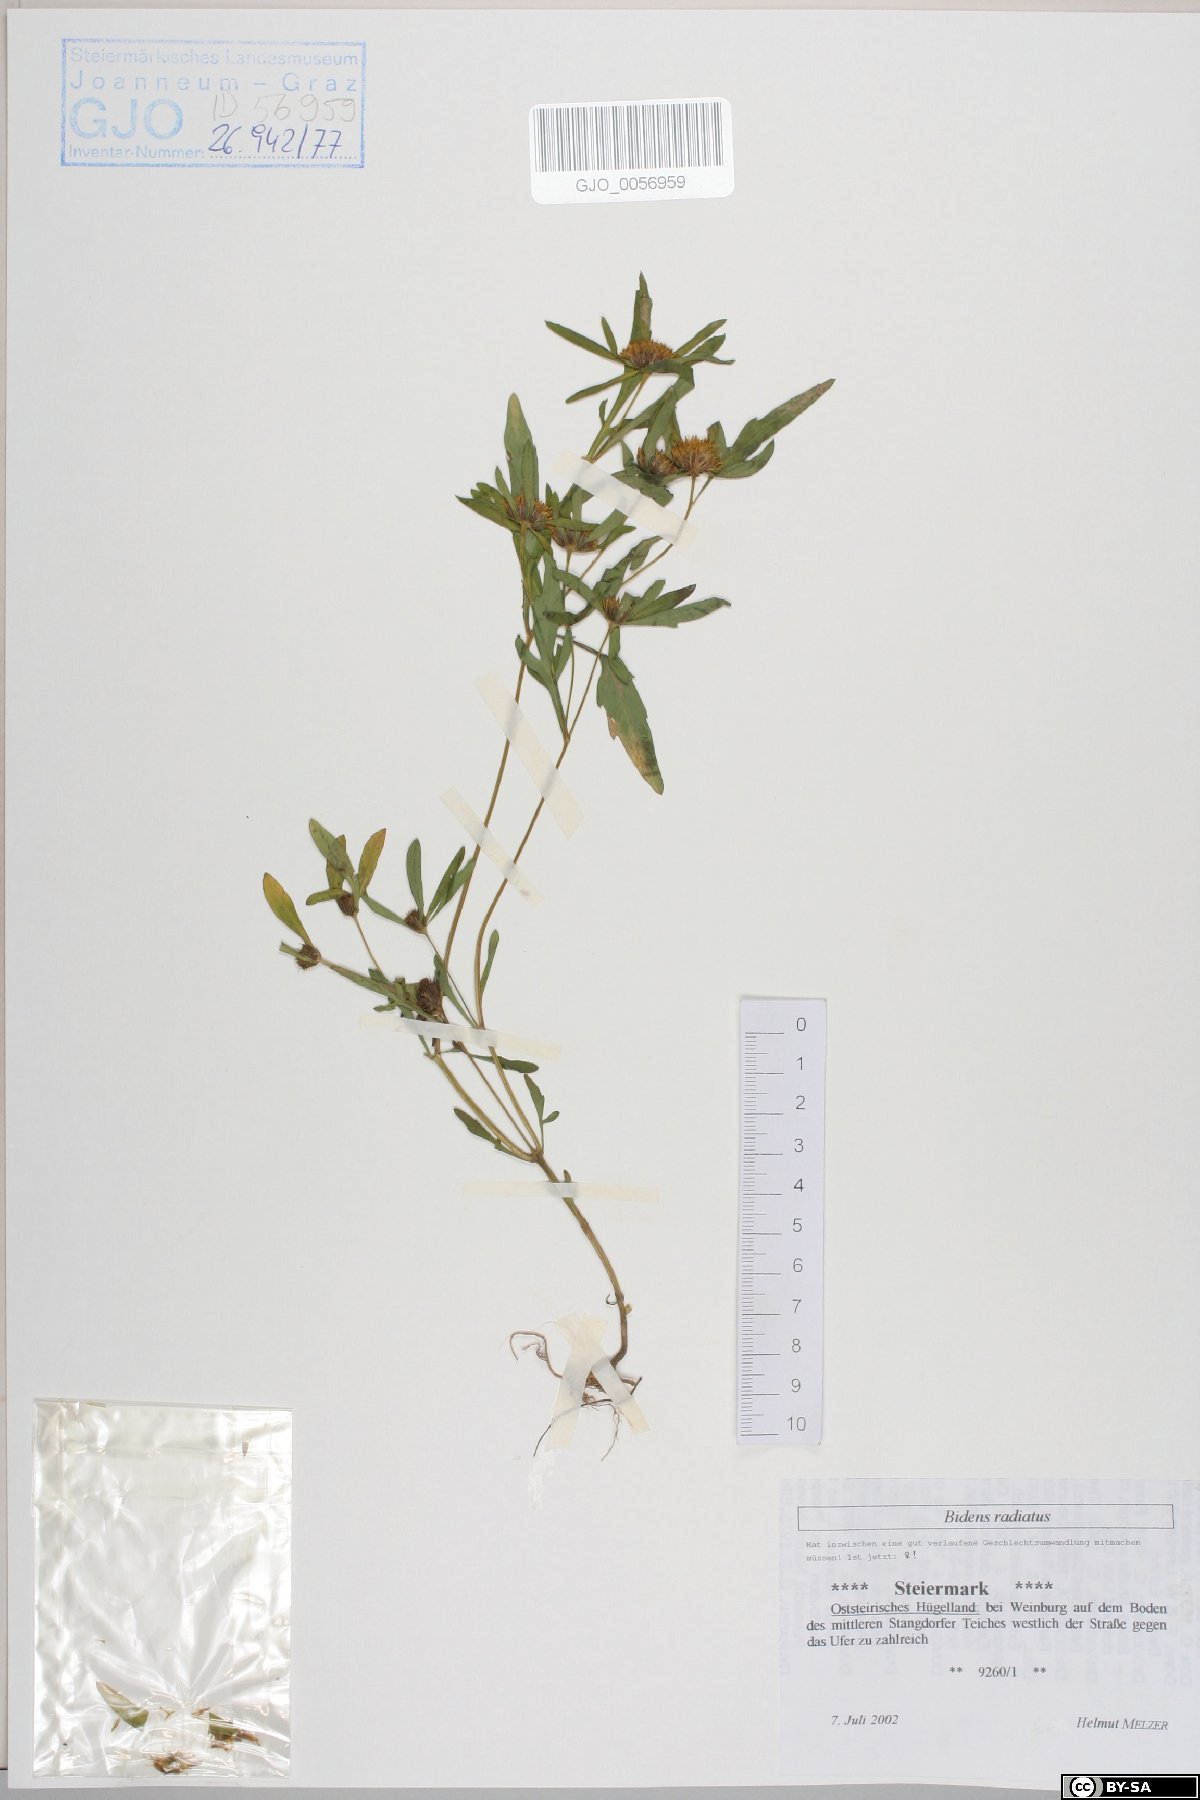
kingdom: Plantae
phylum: Tracheophyta
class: Magnoliopsida
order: Asterales
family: Asteraceae
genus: Bidens
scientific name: Bidens radiata
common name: Radiating bur-marigold
